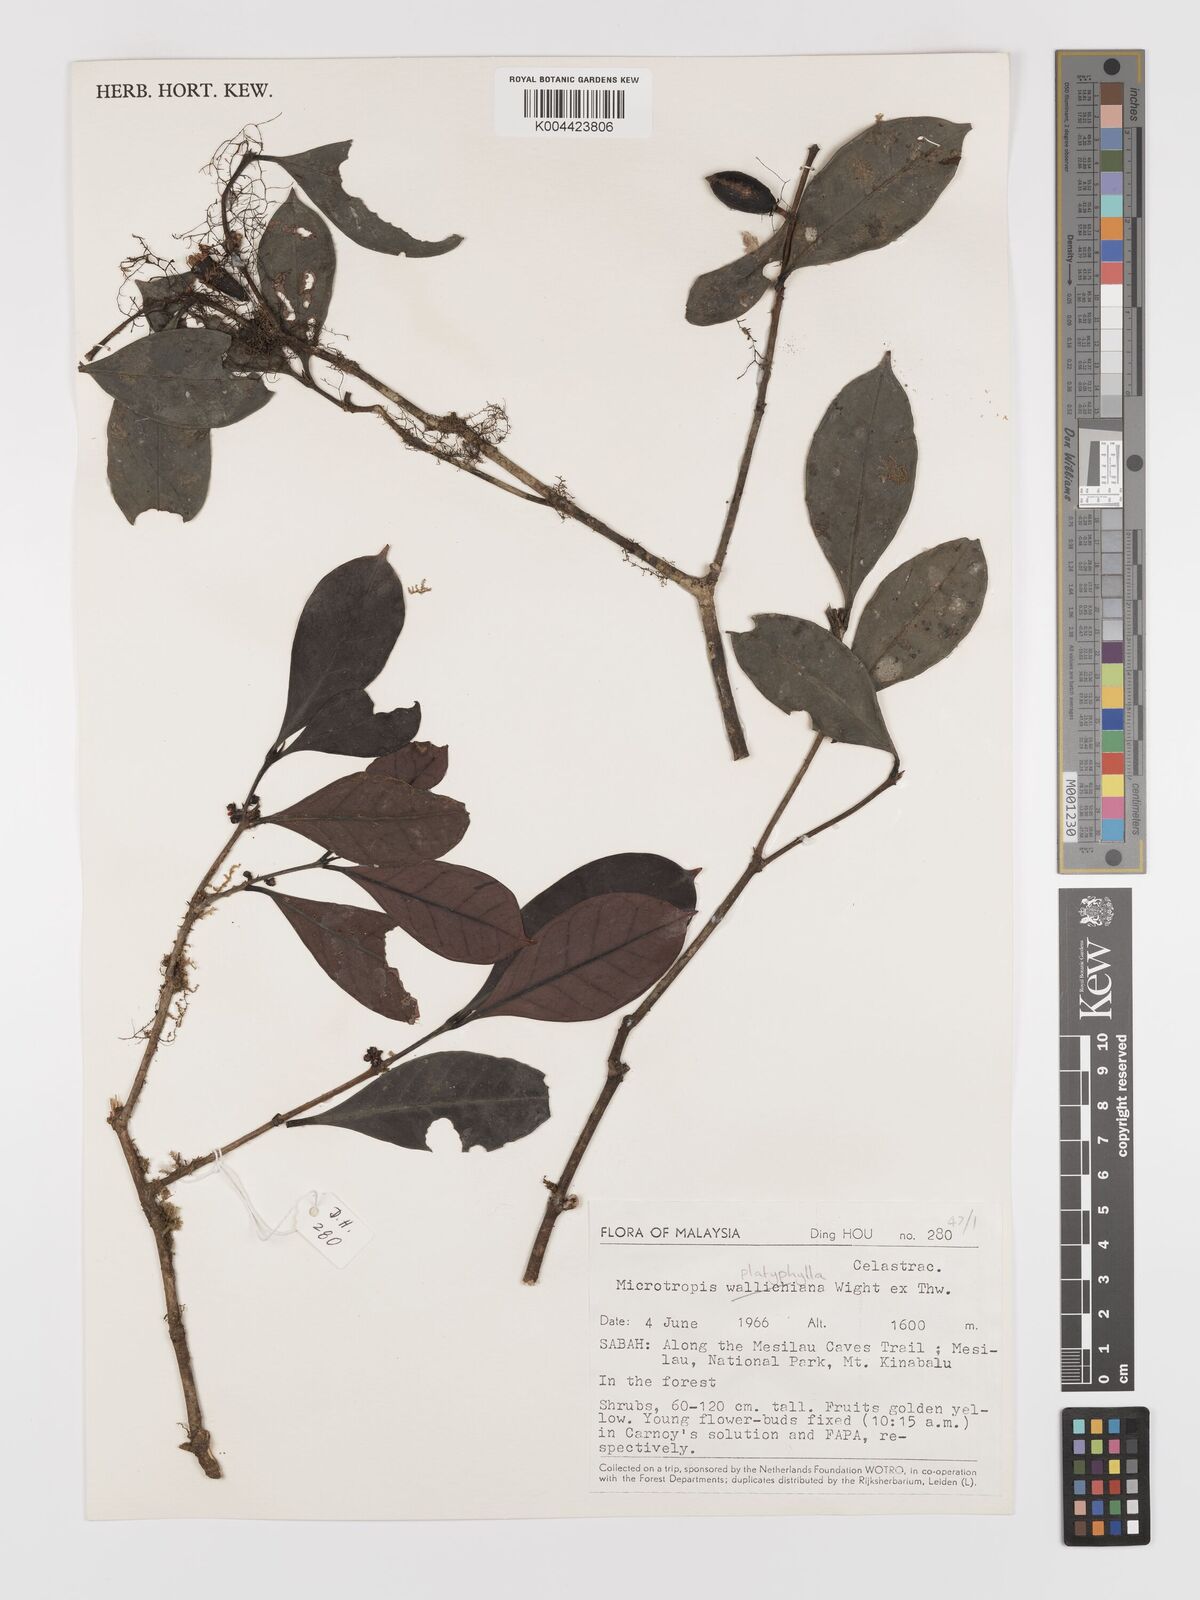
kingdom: Plantae
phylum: Tracheophyta
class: Magnoliopsida
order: Celastrales
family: Celastraceae
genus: Microtropis
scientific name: Microtropis platyphylla
